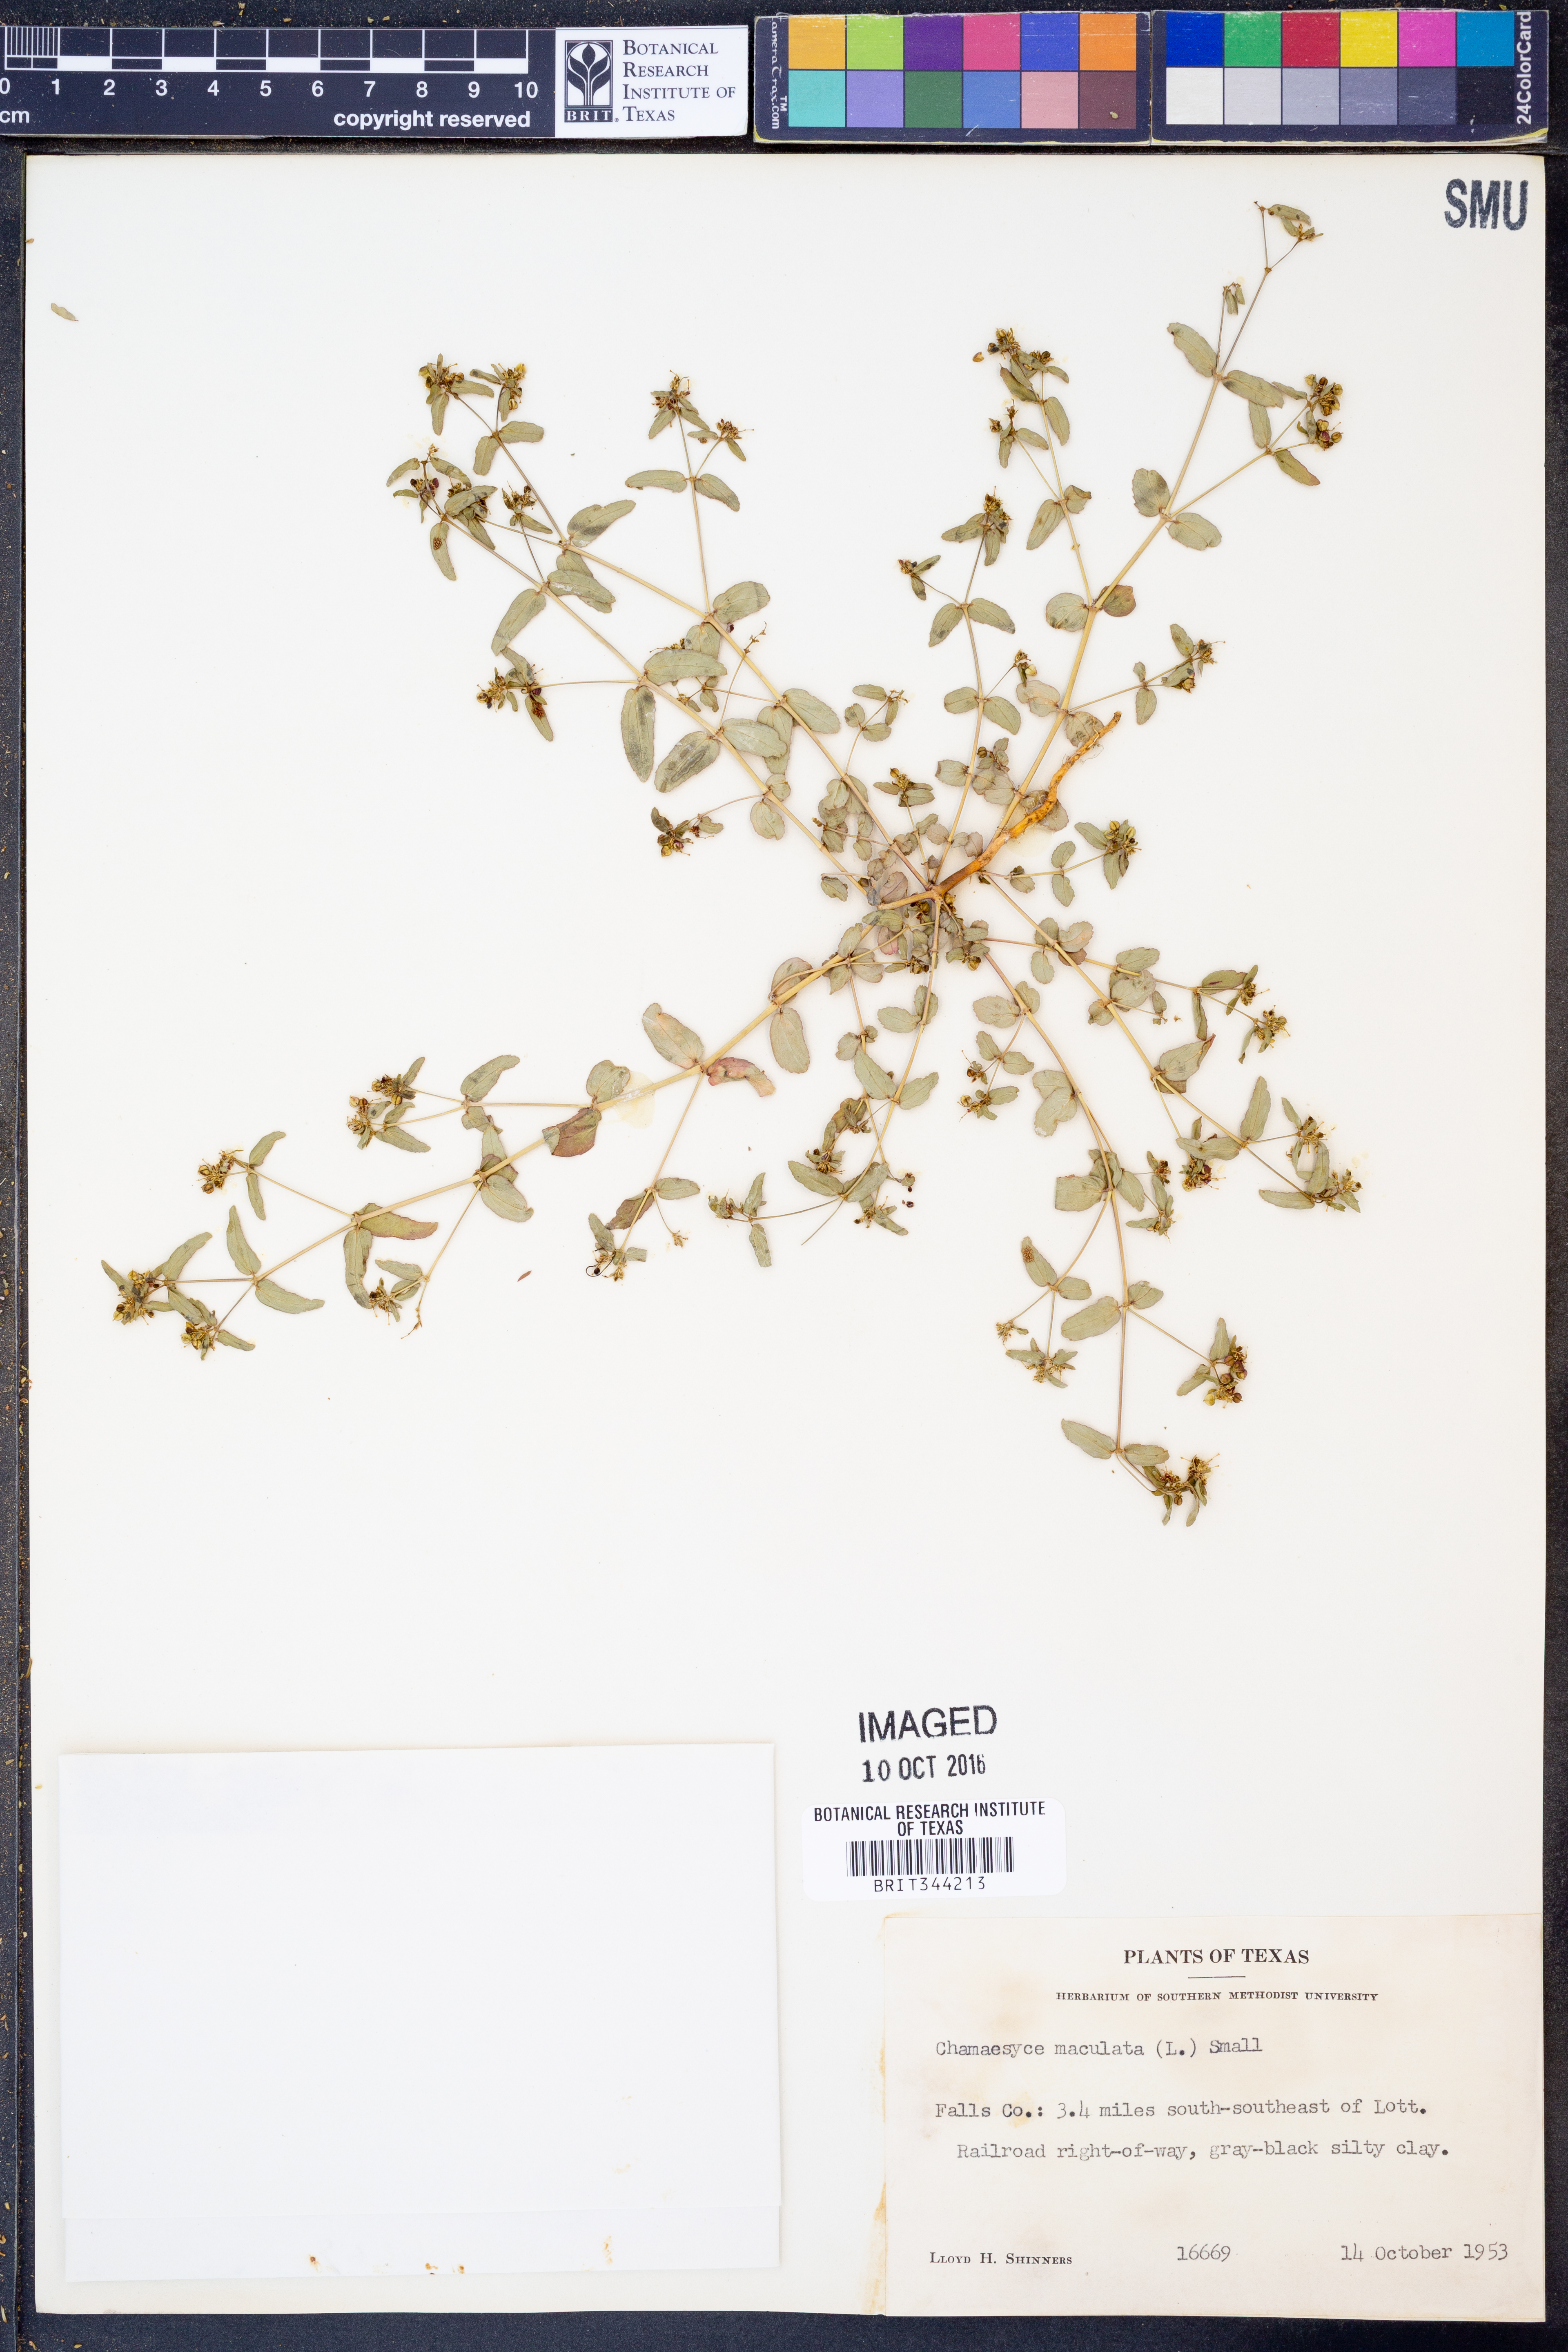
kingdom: Plantae
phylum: Tracheophyta
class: Magnoliopsida
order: Malpighiales
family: Euphorbiaceae
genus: Euphorbia
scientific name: Euphorbia maculata
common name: Spotted spurge
